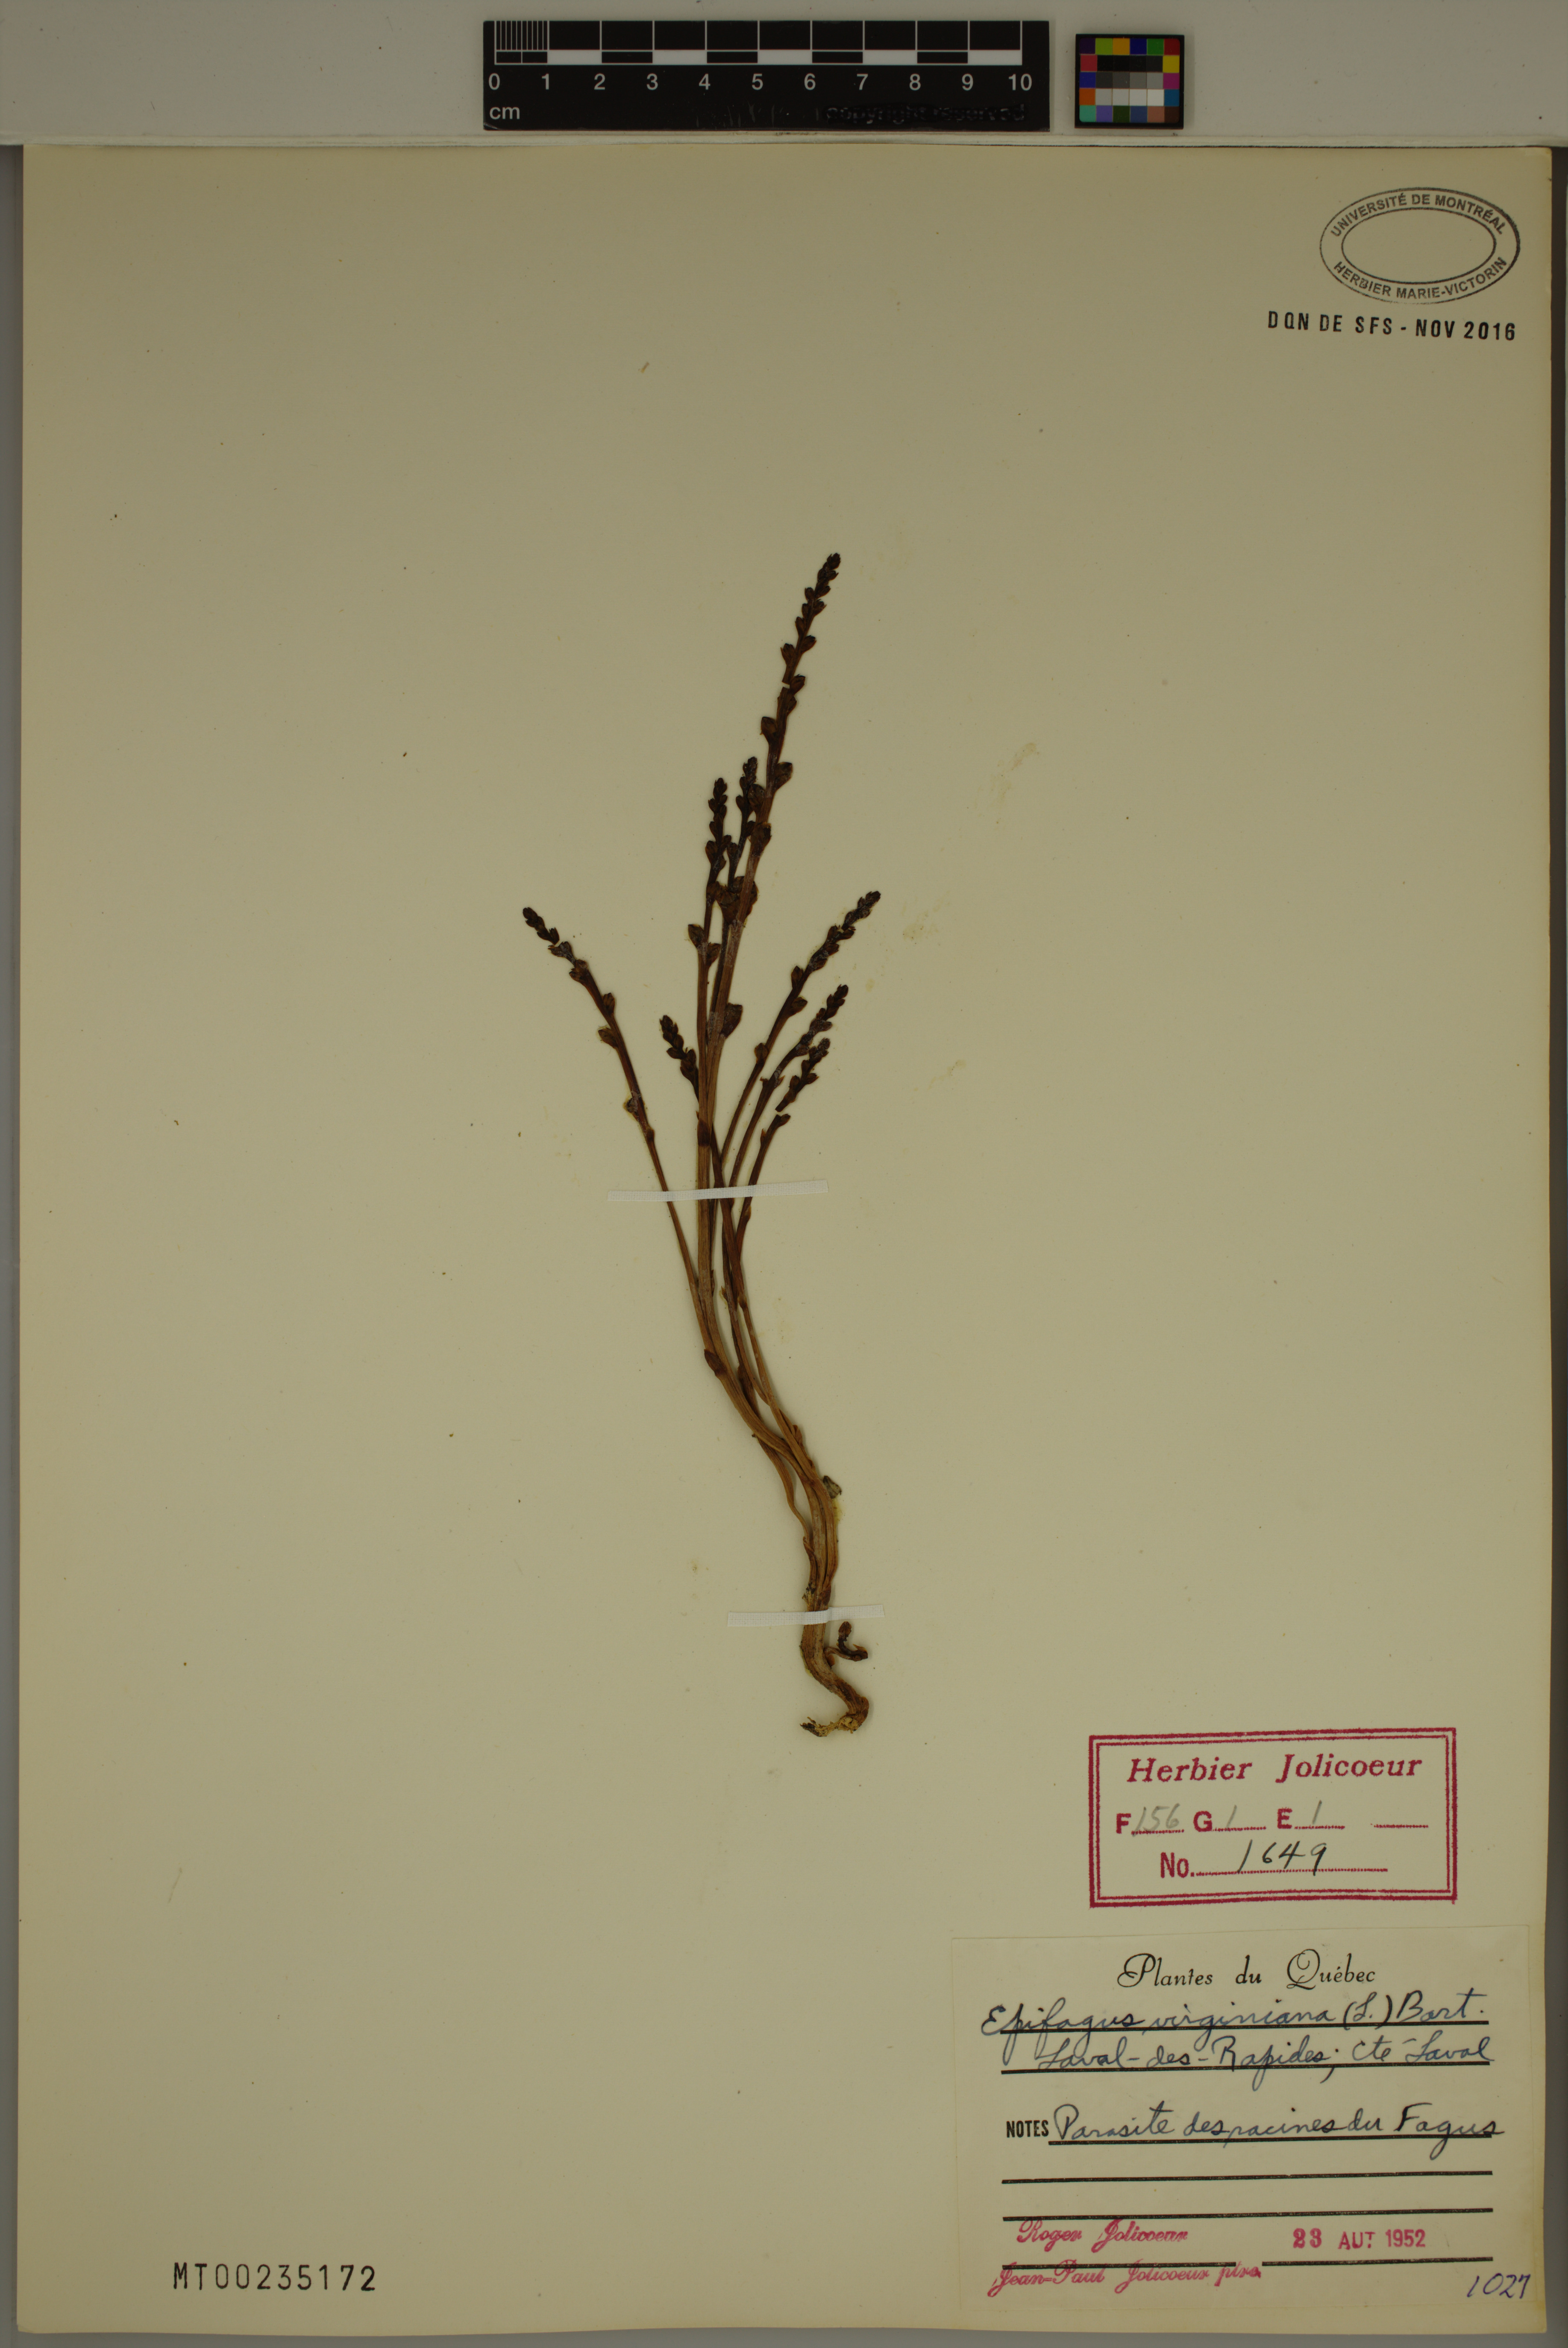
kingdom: Plantae
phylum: Tracheophyta
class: Magnoliopsida
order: Lamiales
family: Orobanchaceae
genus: Epifagus
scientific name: Epifagus virginiana
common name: Beechdrops
